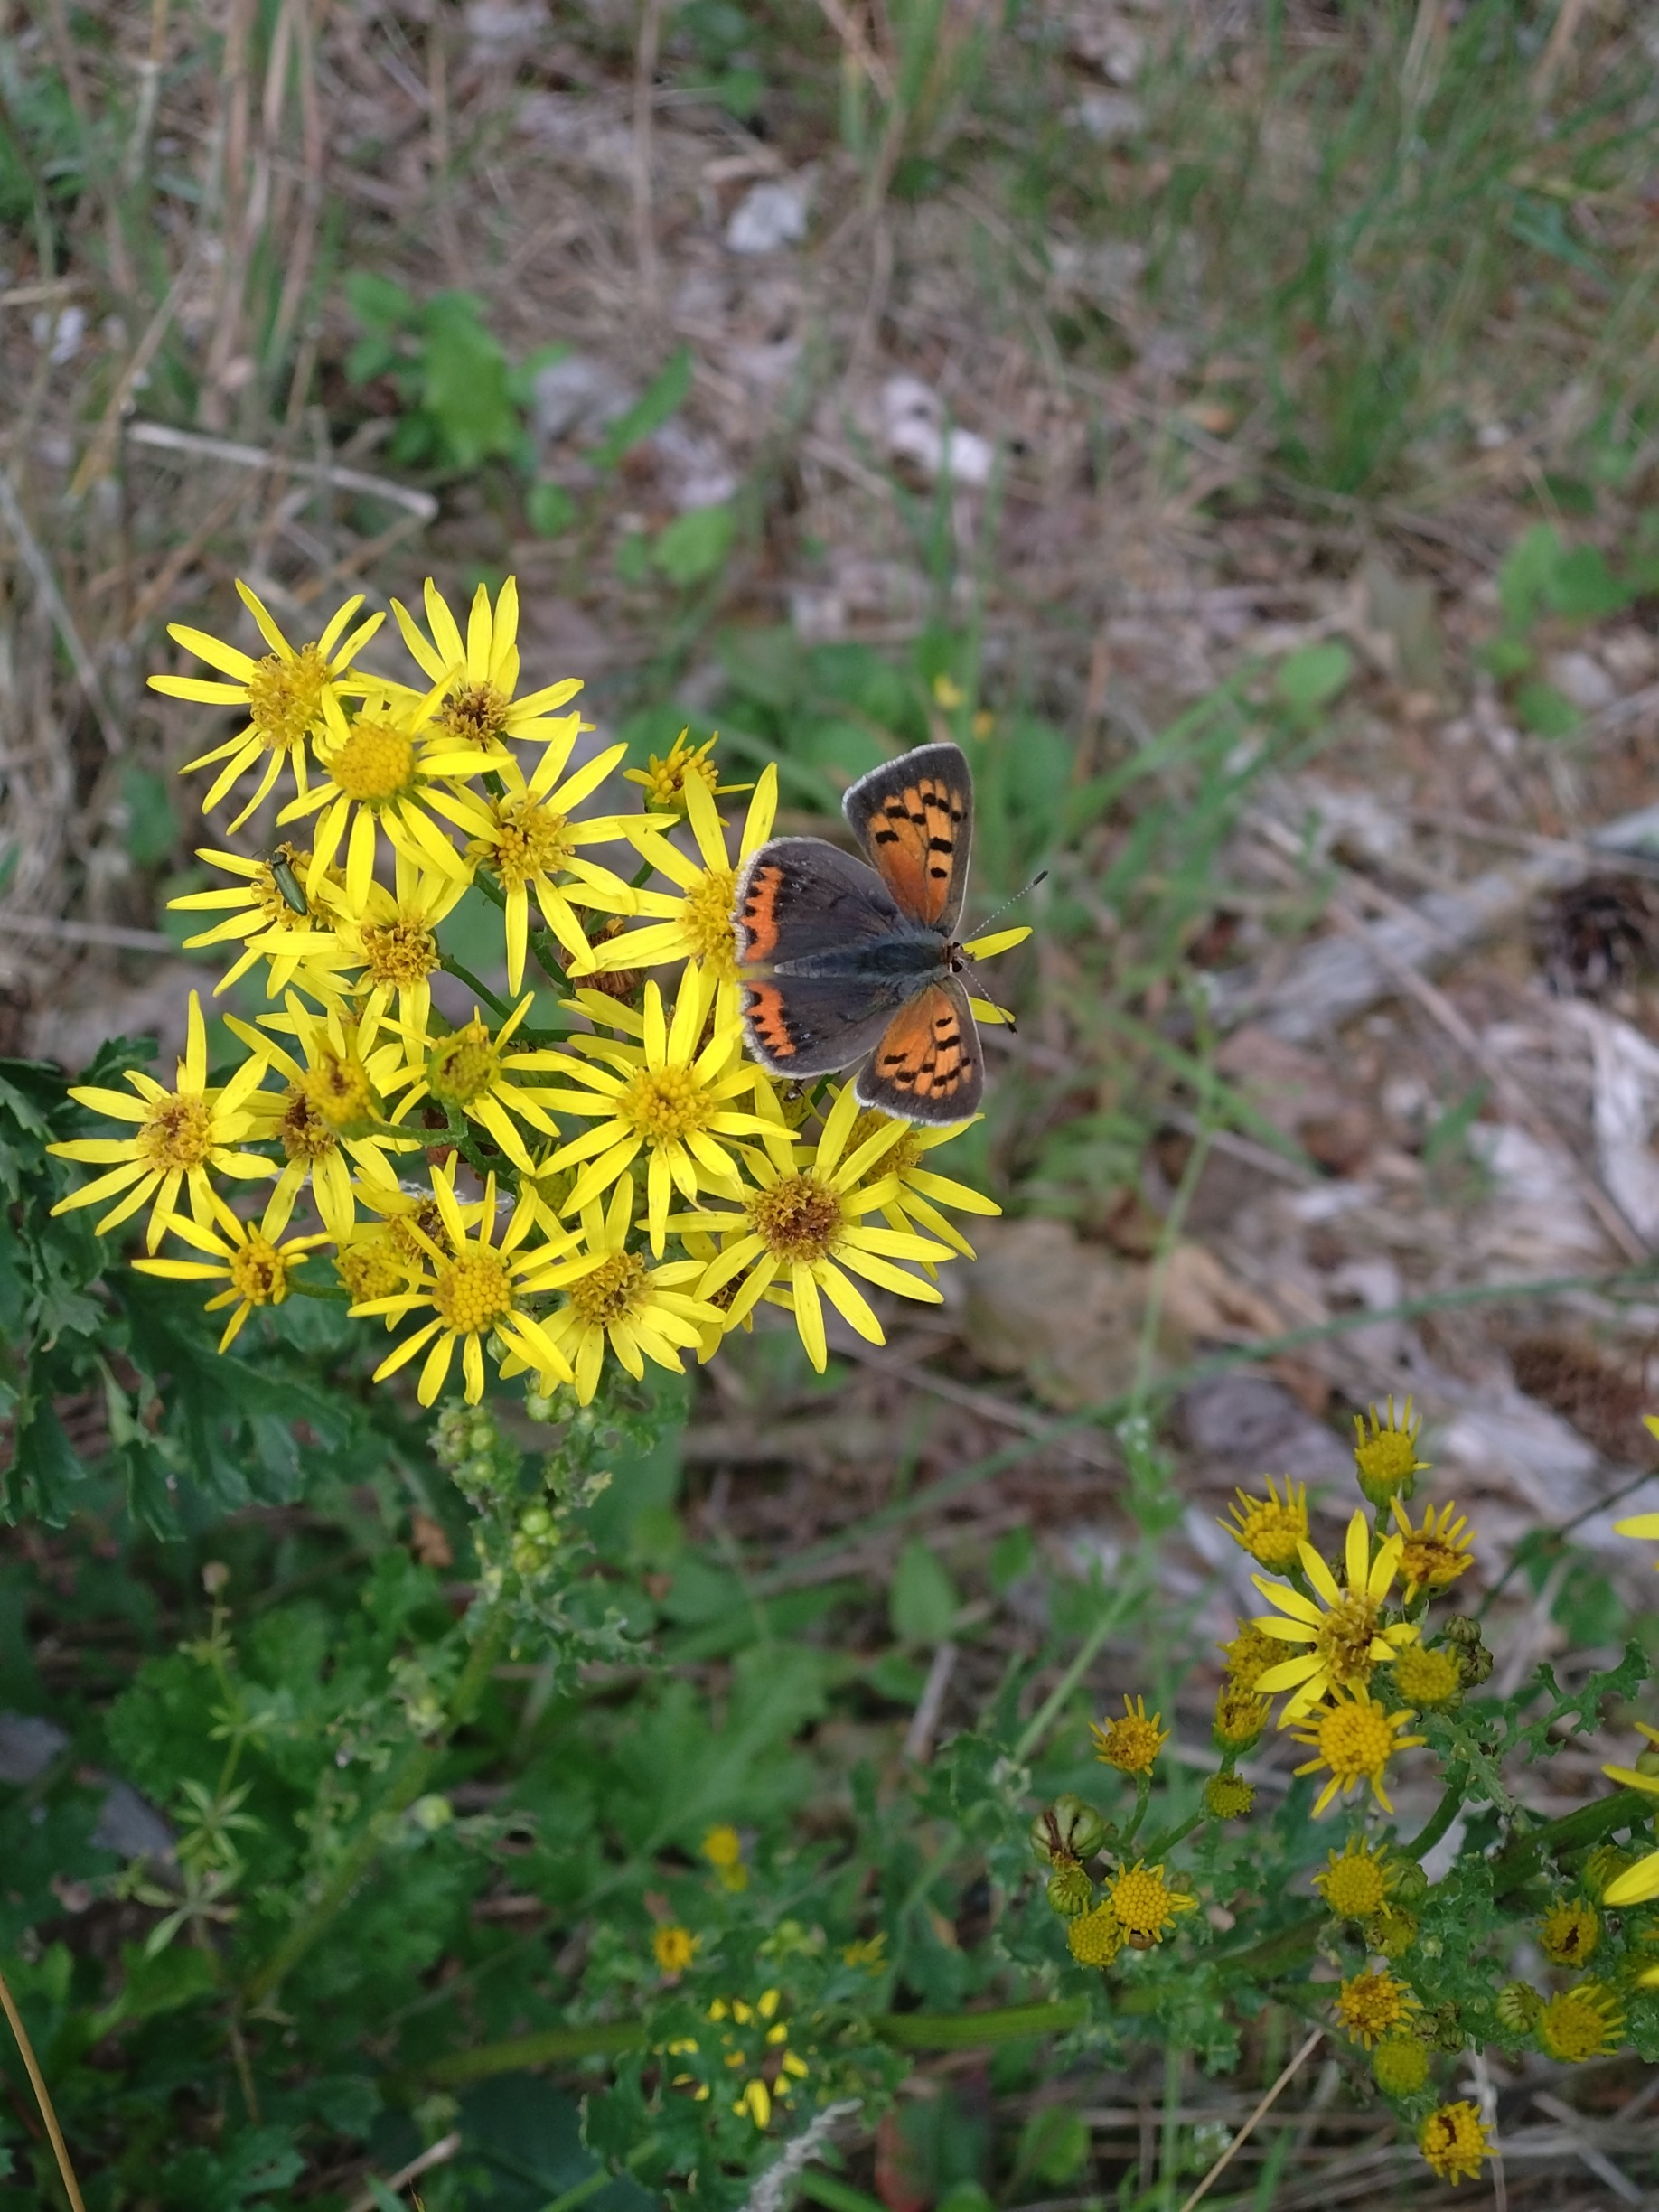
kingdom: Animalia
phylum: Arthropoda
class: Insecta
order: Lepidoptera
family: Lycaenidae
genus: Lycaena
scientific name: Lycaena phlaeas
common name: Lille ildfugl
